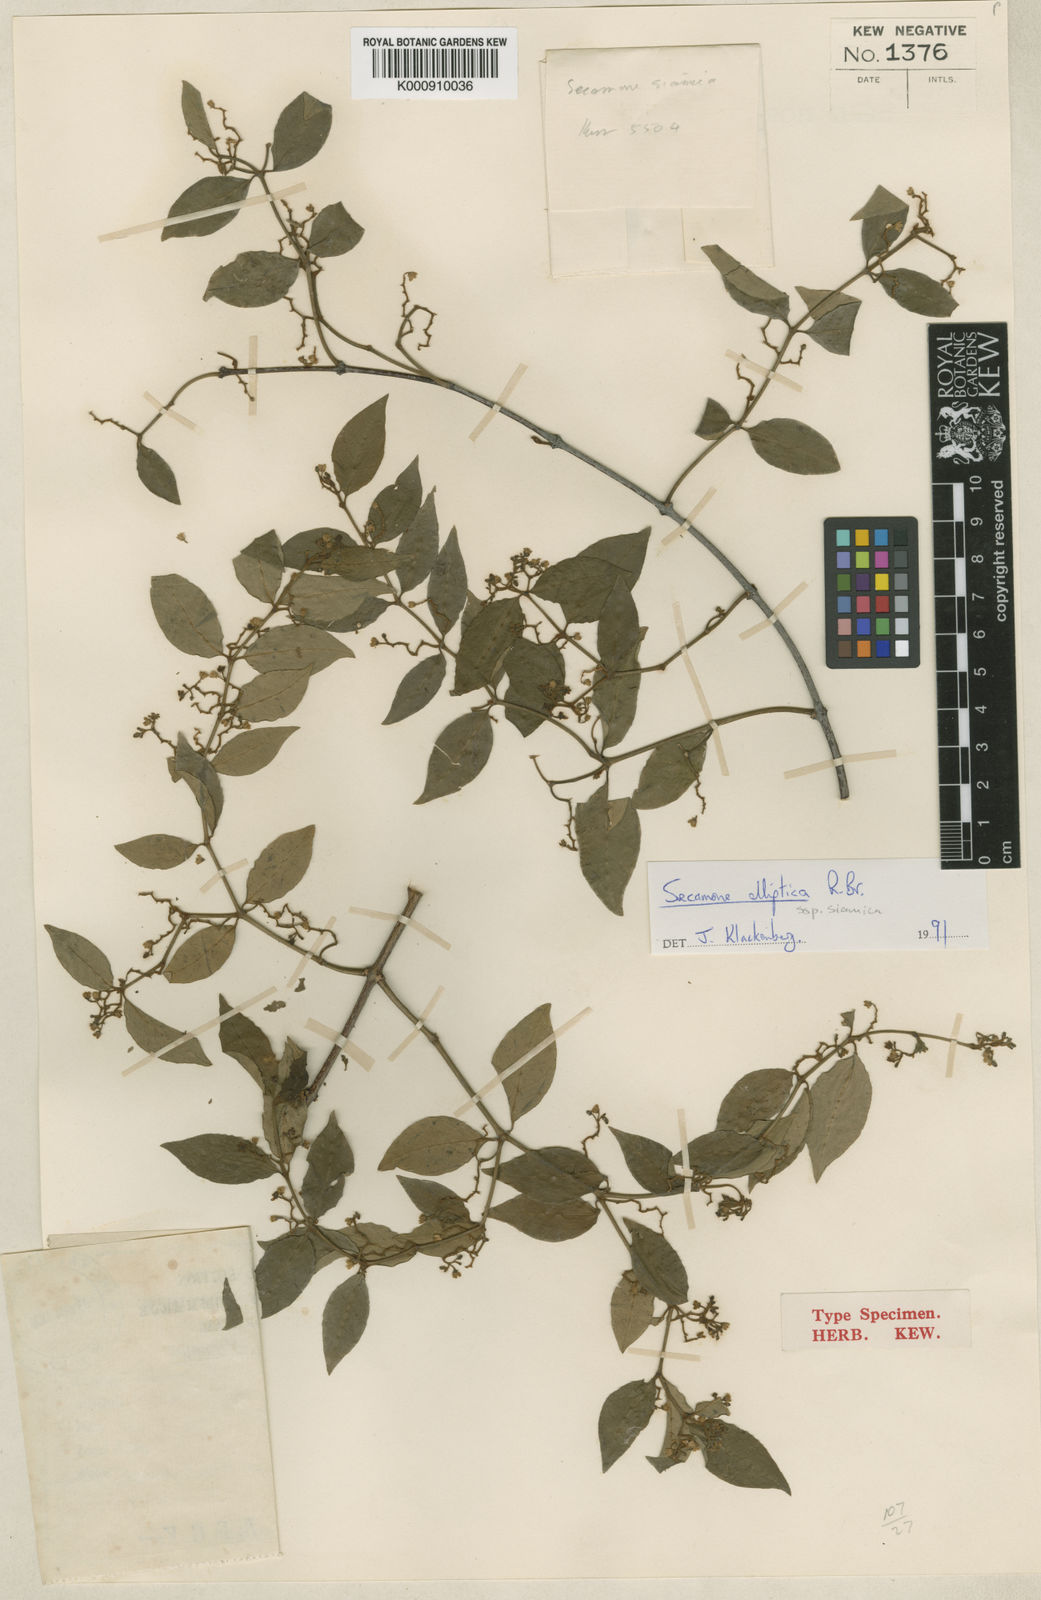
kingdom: Plantae
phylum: Tracheophyta
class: Magnoliopsida
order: Gentianales
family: Apocynaceae
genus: Secamone
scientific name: Secamone elliptica
